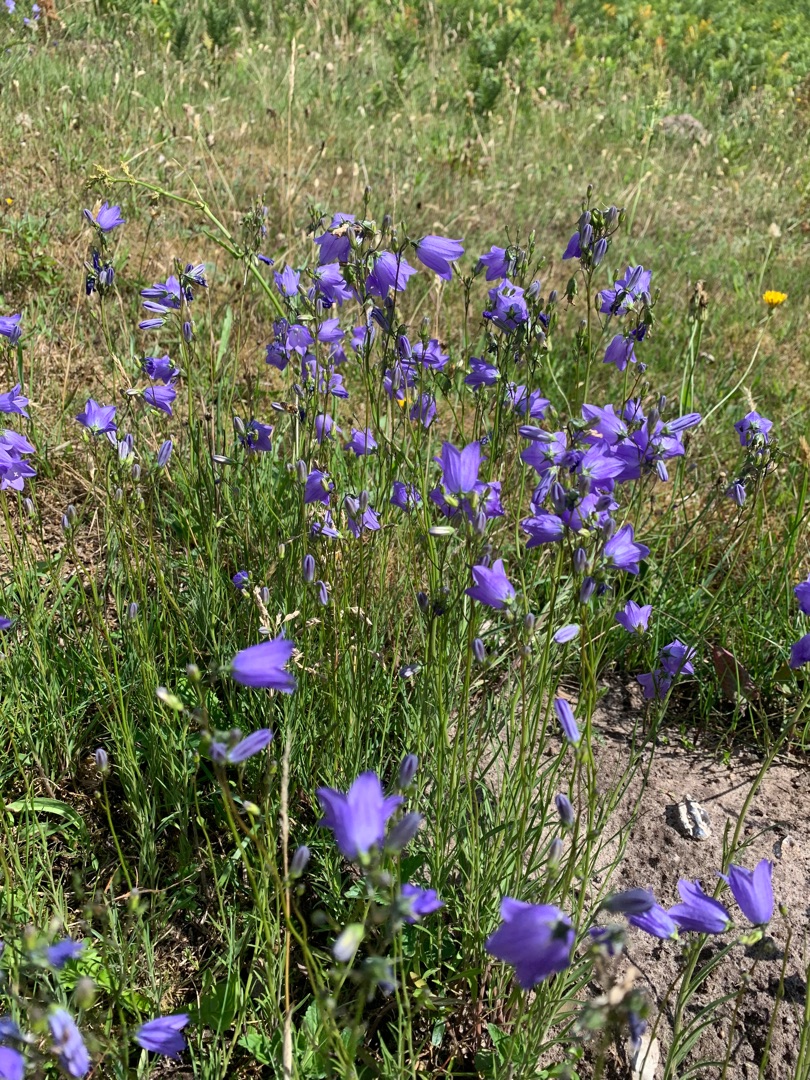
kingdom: Plantae
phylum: Tracheophyta
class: Magnoliopsida
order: Asterales
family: Campanulaceae
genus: Campanula
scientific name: Campanula rotundifolia
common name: Liden klokke
